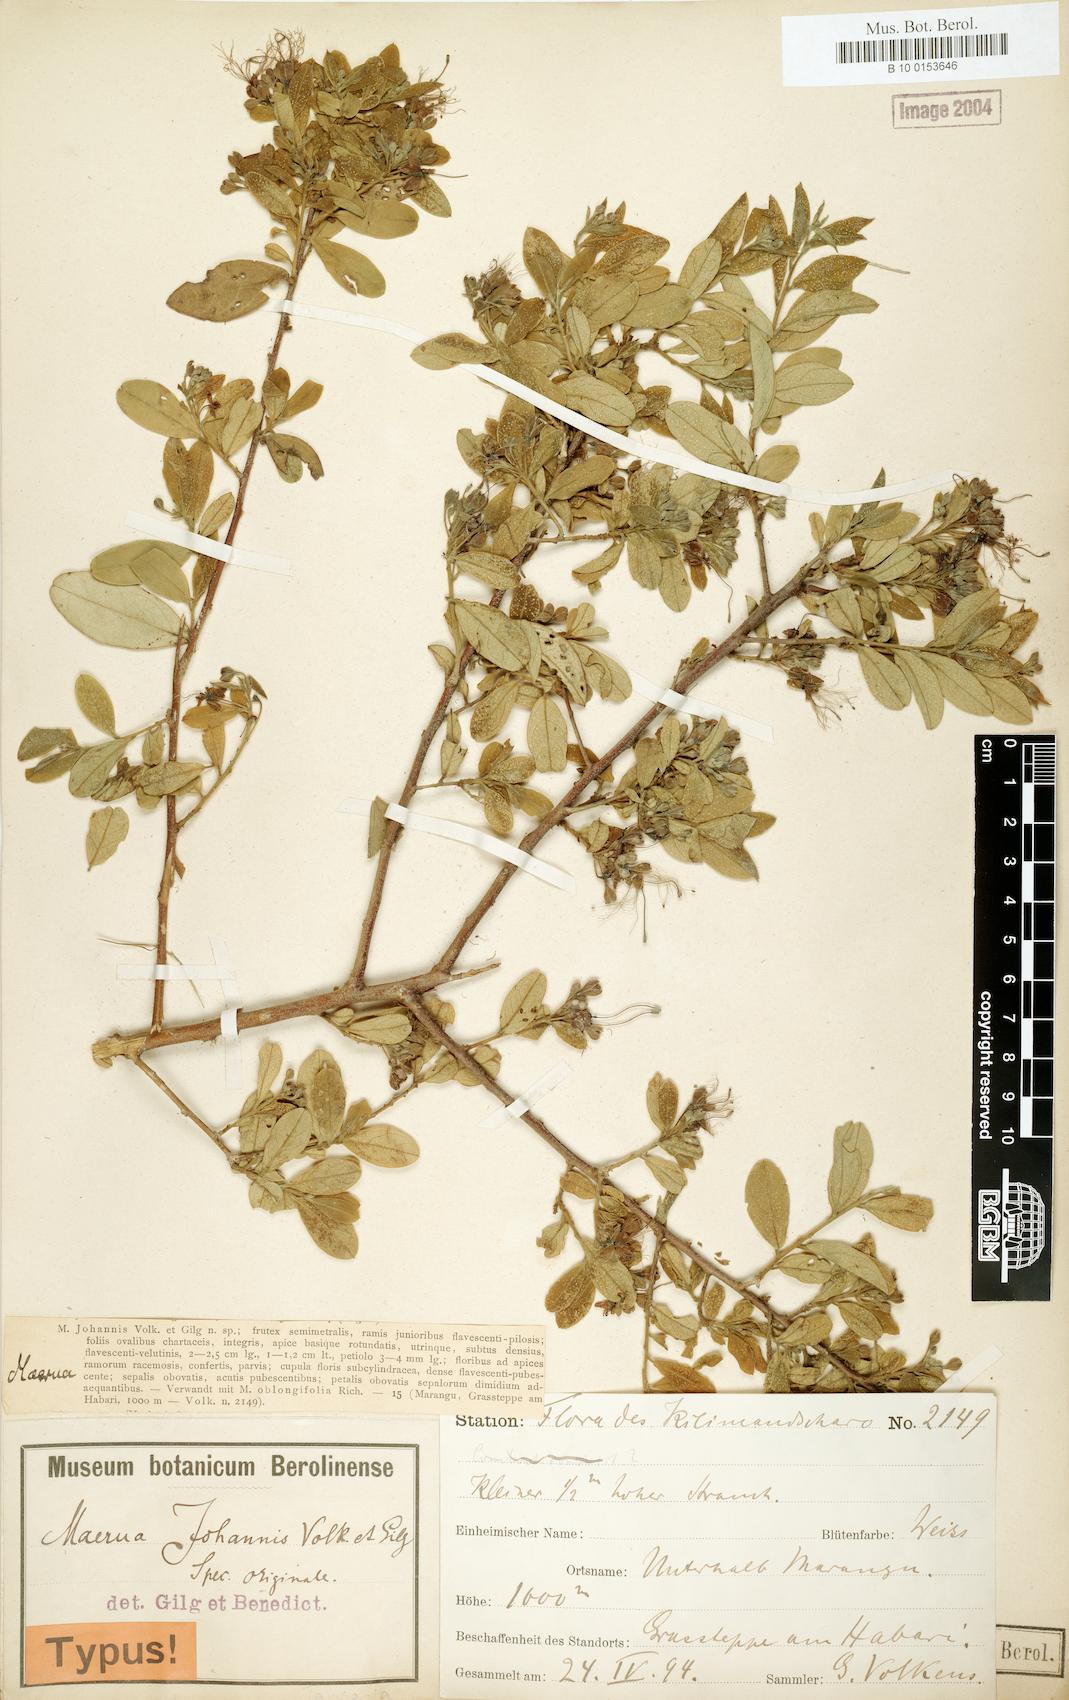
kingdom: Plantae
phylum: Tracheophyta
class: Magnoliopsida
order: Brassicales
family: Capparaceae
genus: Maerua
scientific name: Maerua triphylla
